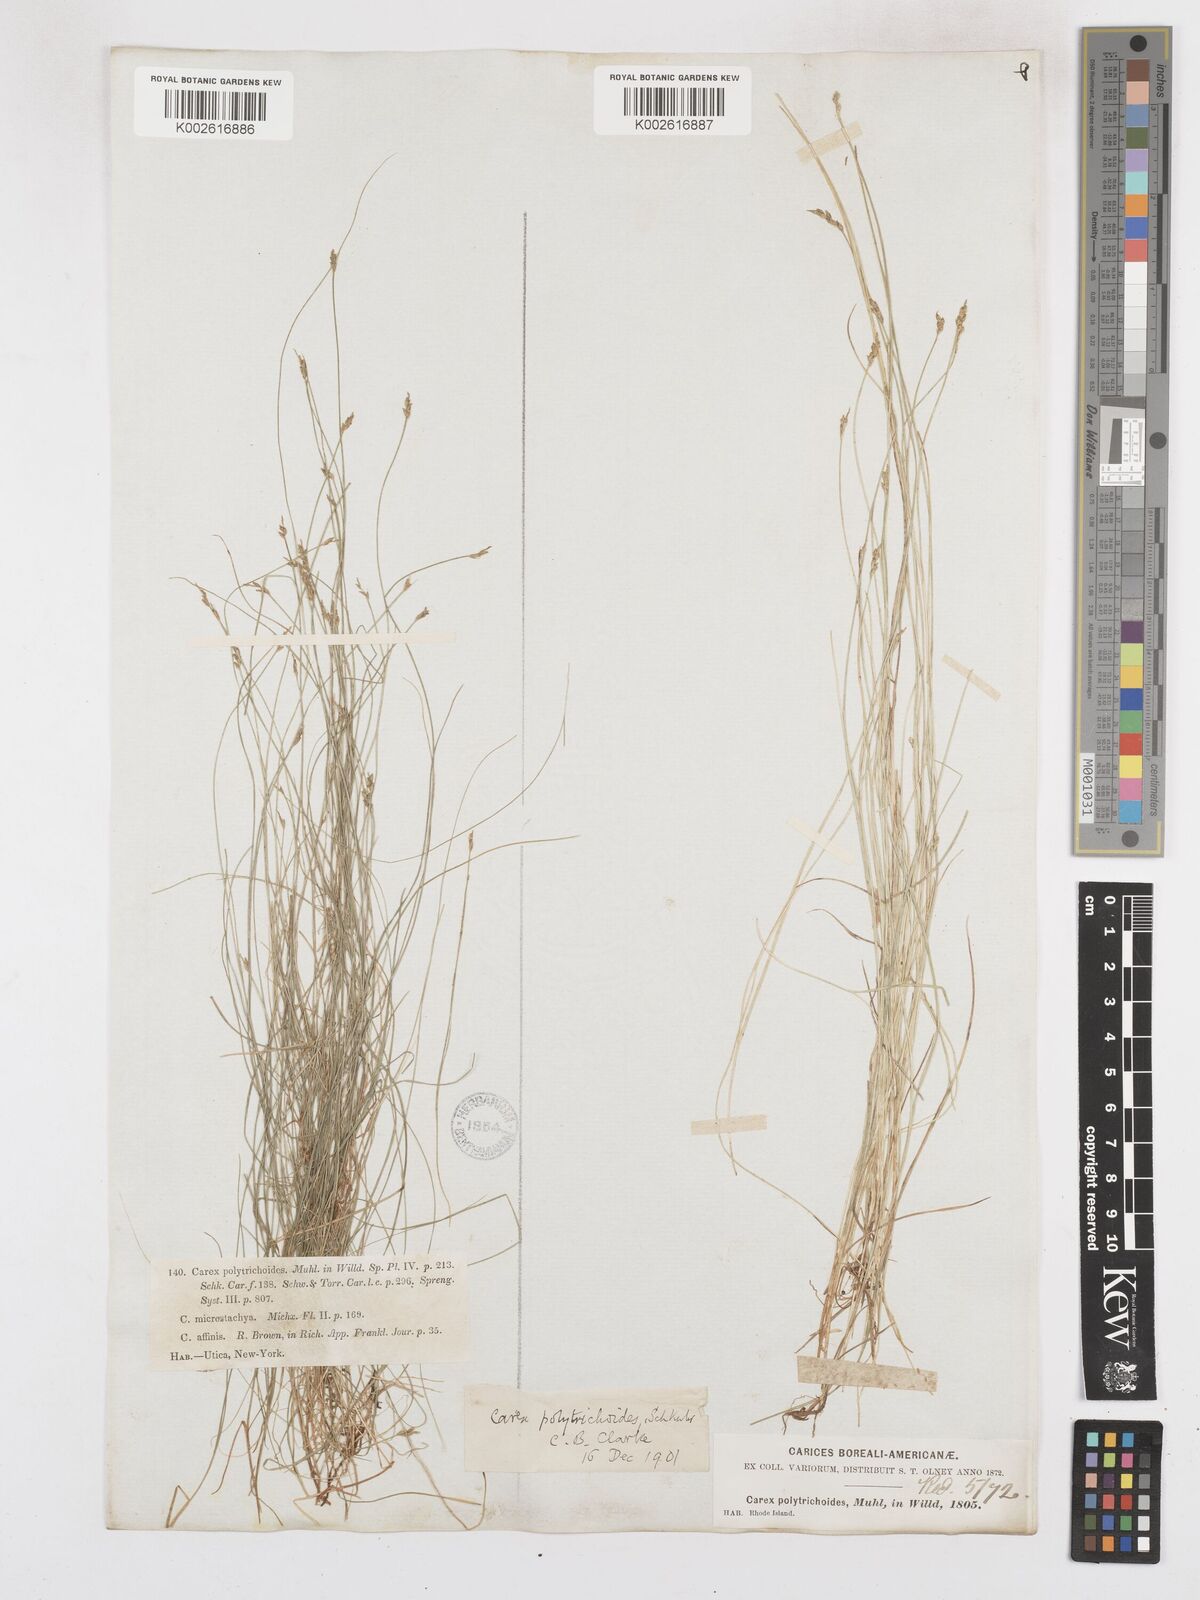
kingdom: Plantae
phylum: Tracheophyta
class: Liliopsida
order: Poales
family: Cyperaceae
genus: Carex
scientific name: Carex leptalea
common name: Bristly-stalked sedge
